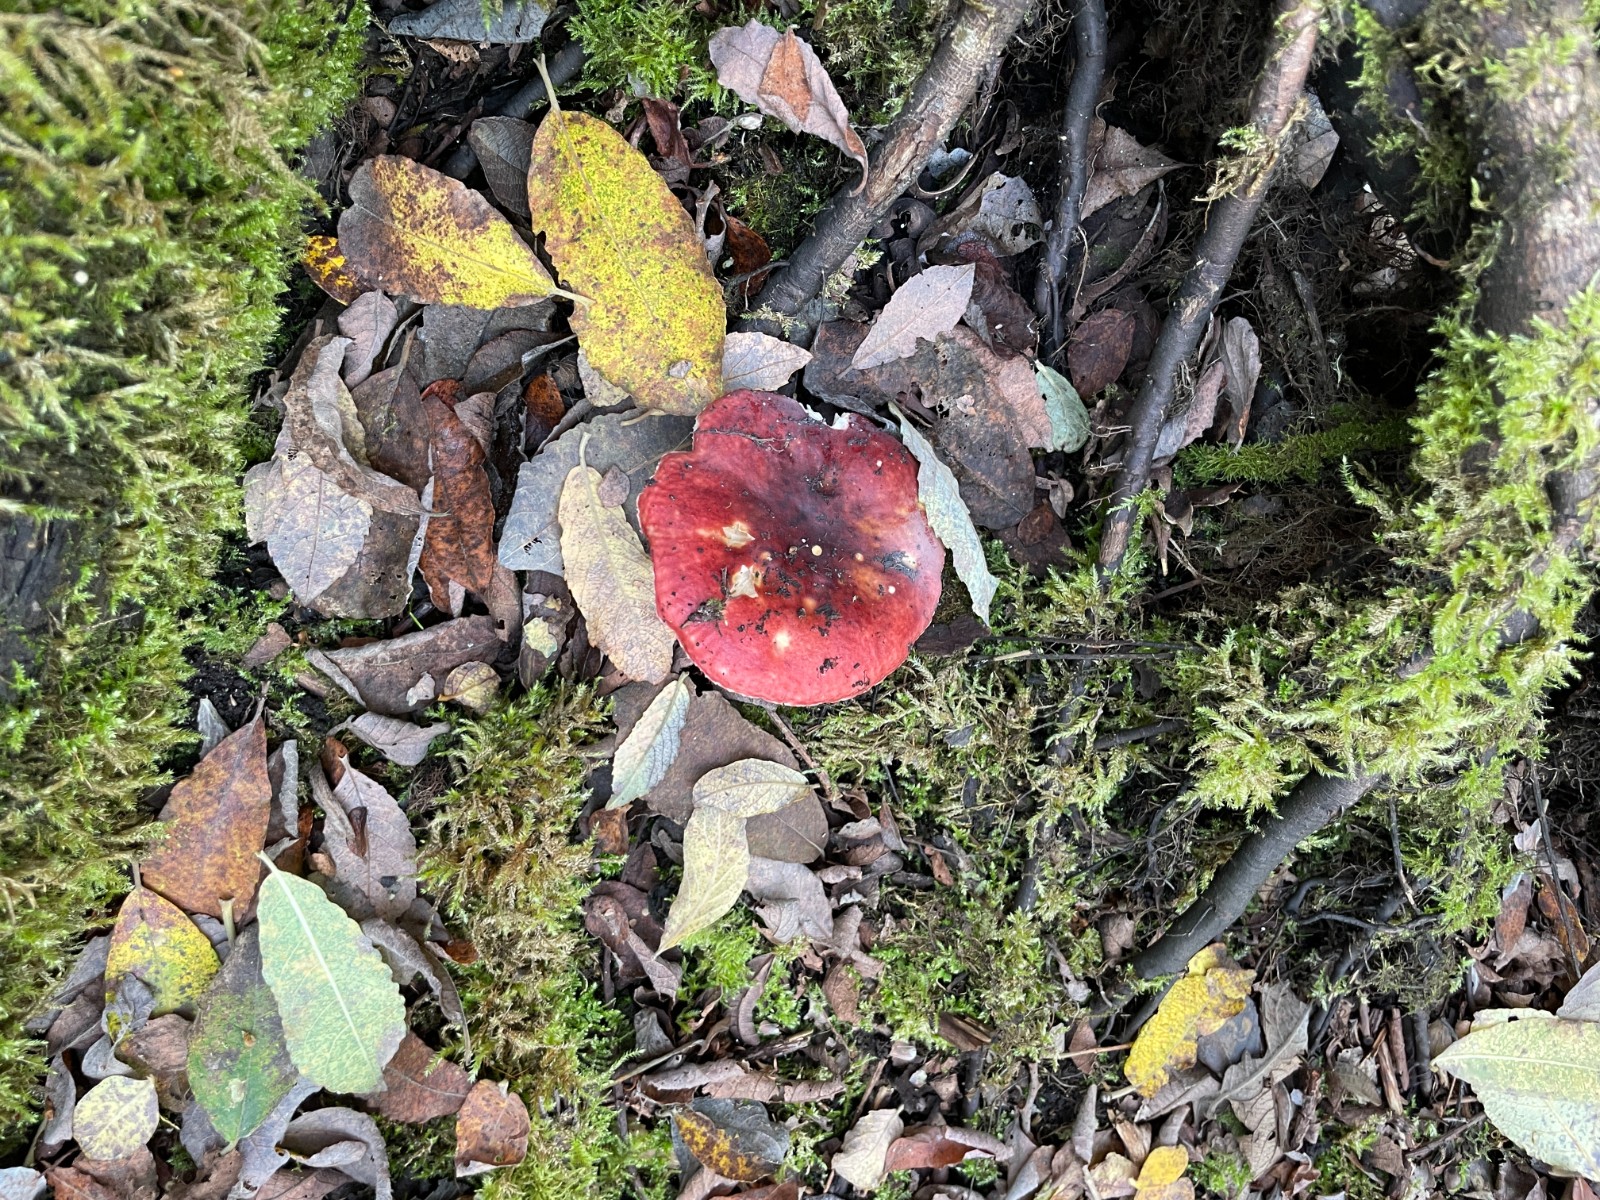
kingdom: Fungi
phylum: Basidiomycota
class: Agaricomycetes
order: Russulales
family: Russulaceae
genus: Russula
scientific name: Russula
